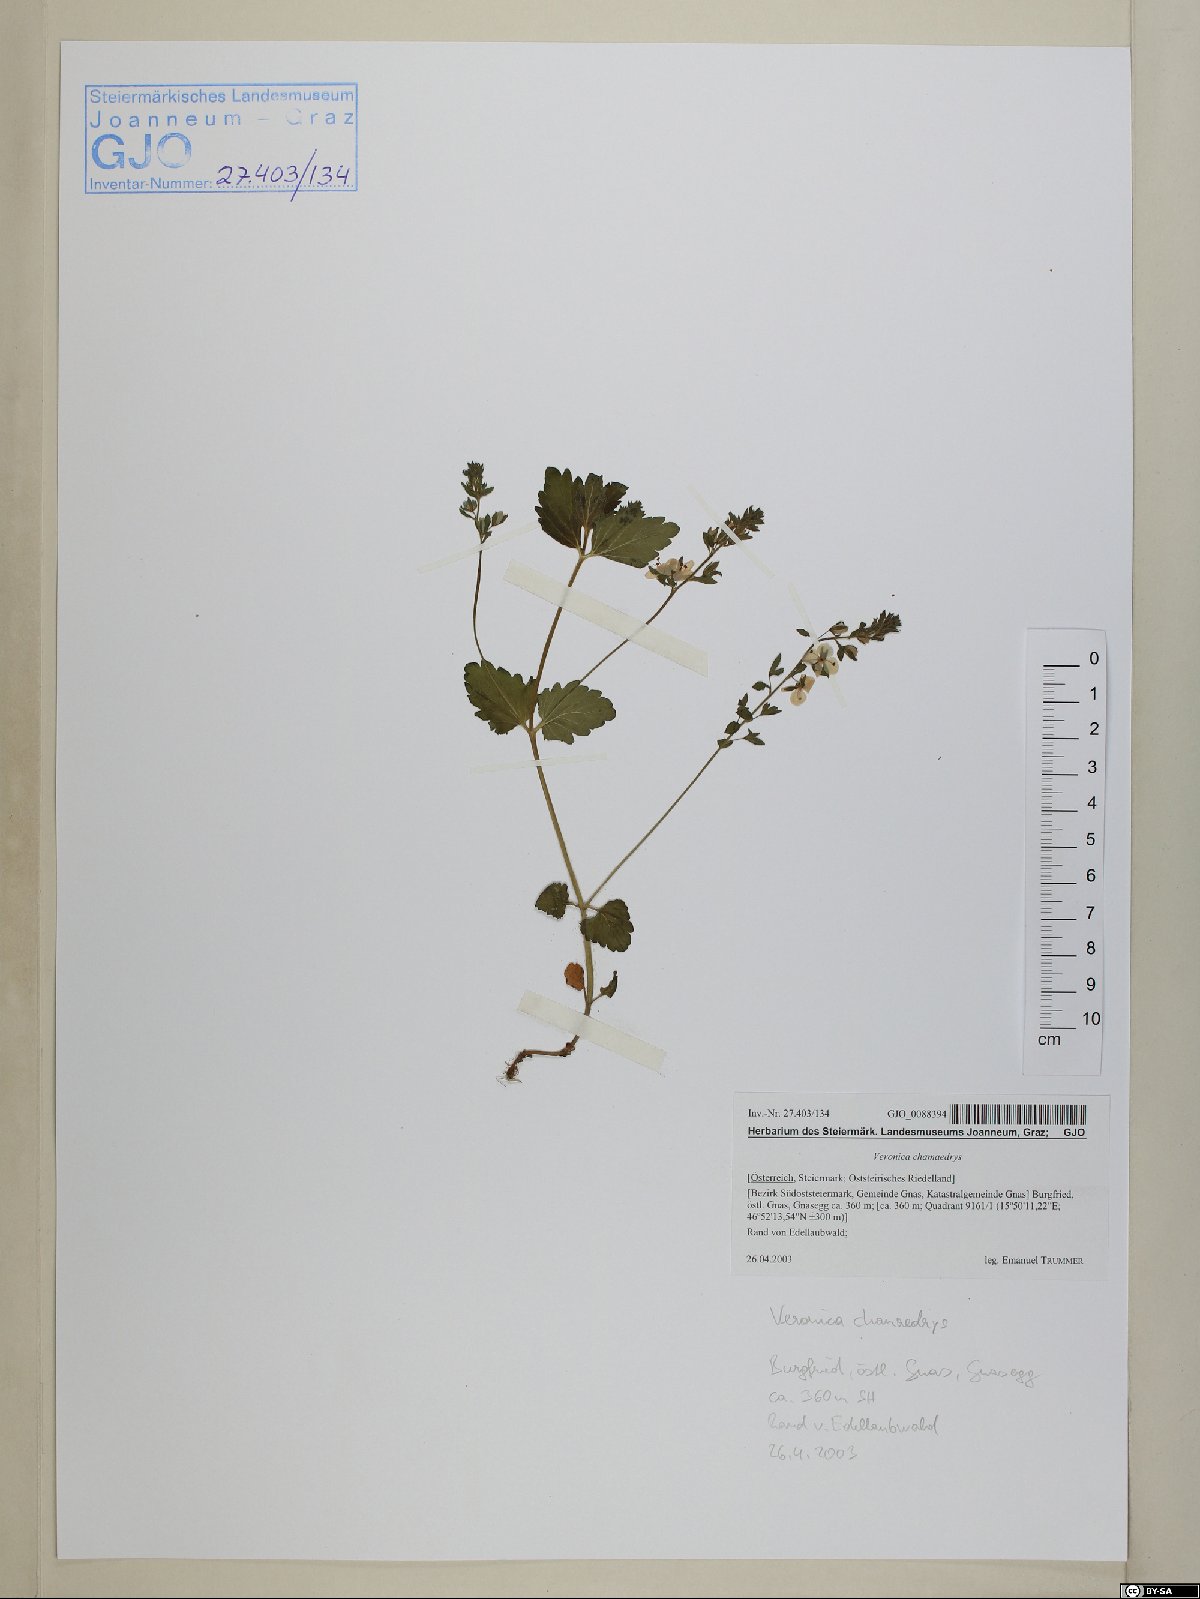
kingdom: Plantae
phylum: Tracheophyta
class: Magnoliopsida
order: Lamiales
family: Plantaginaceae
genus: Veronica
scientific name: Veronica chamaedrys
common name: Germander speedwell
